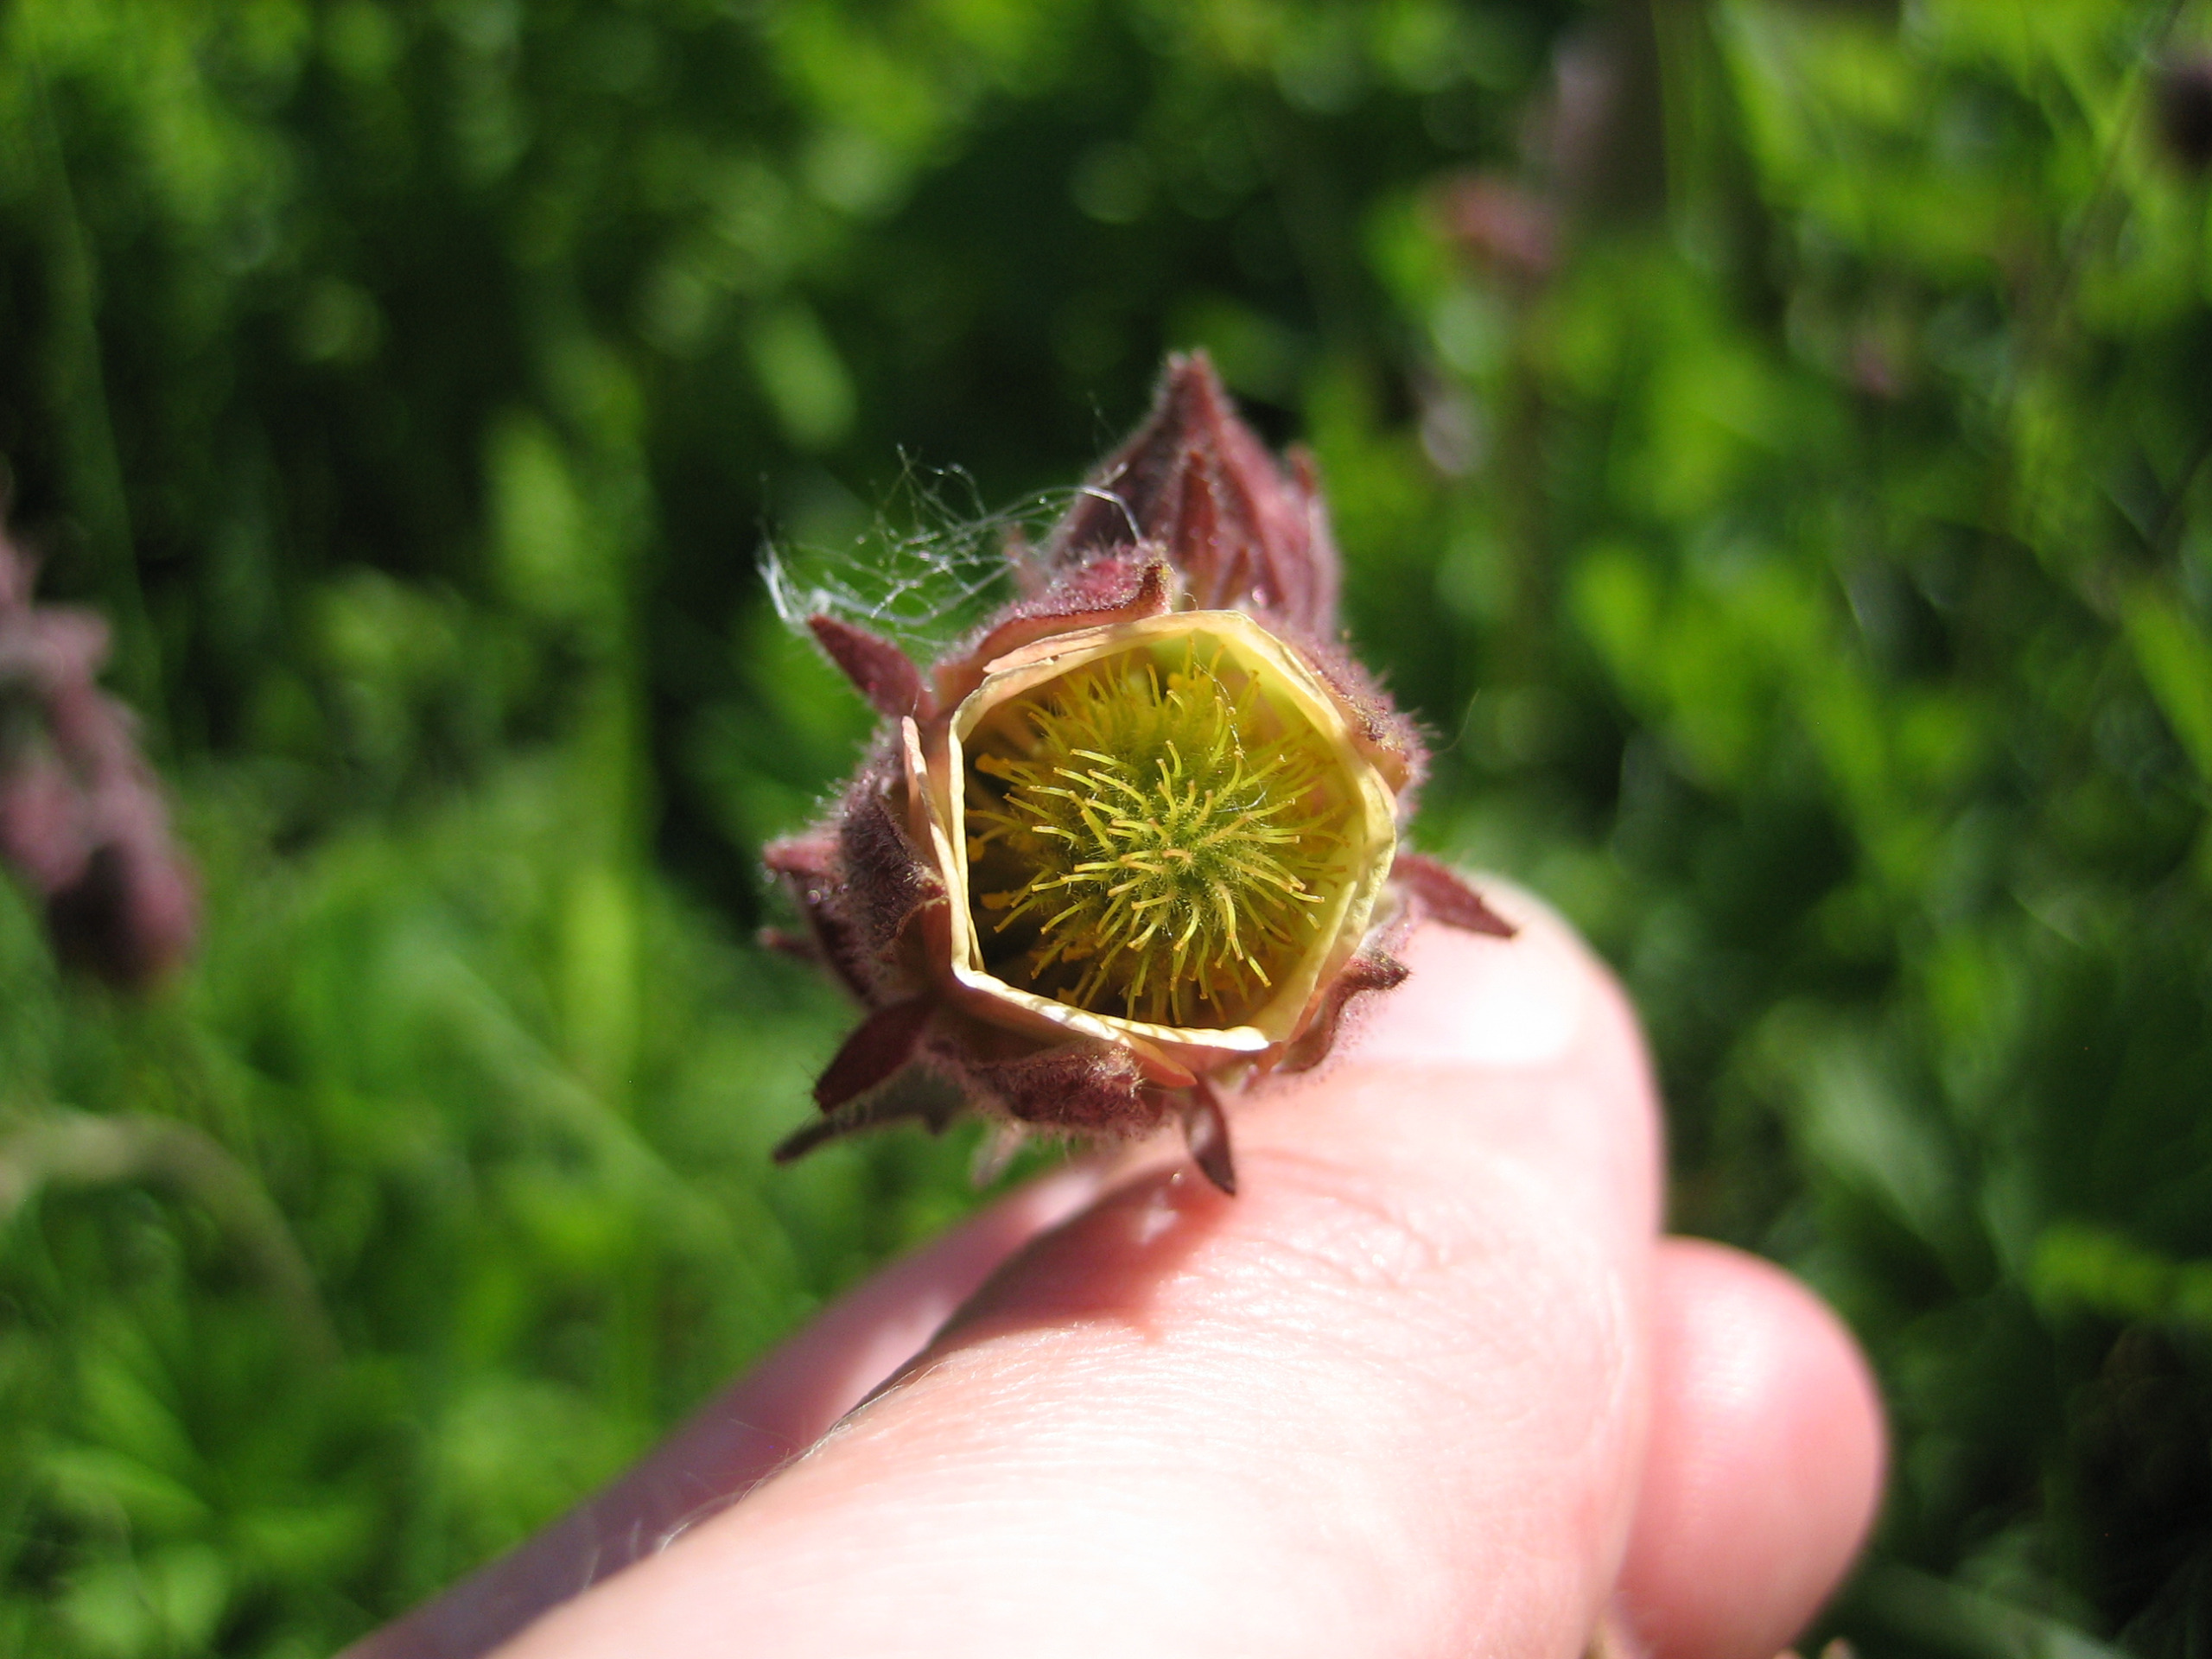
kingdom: Plantae
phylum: Tracheophyta
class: Magnoliopsida
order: Rosales
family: Rosaceae
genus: Geum
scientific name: Geum rivale
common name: Eng-nellikerod
